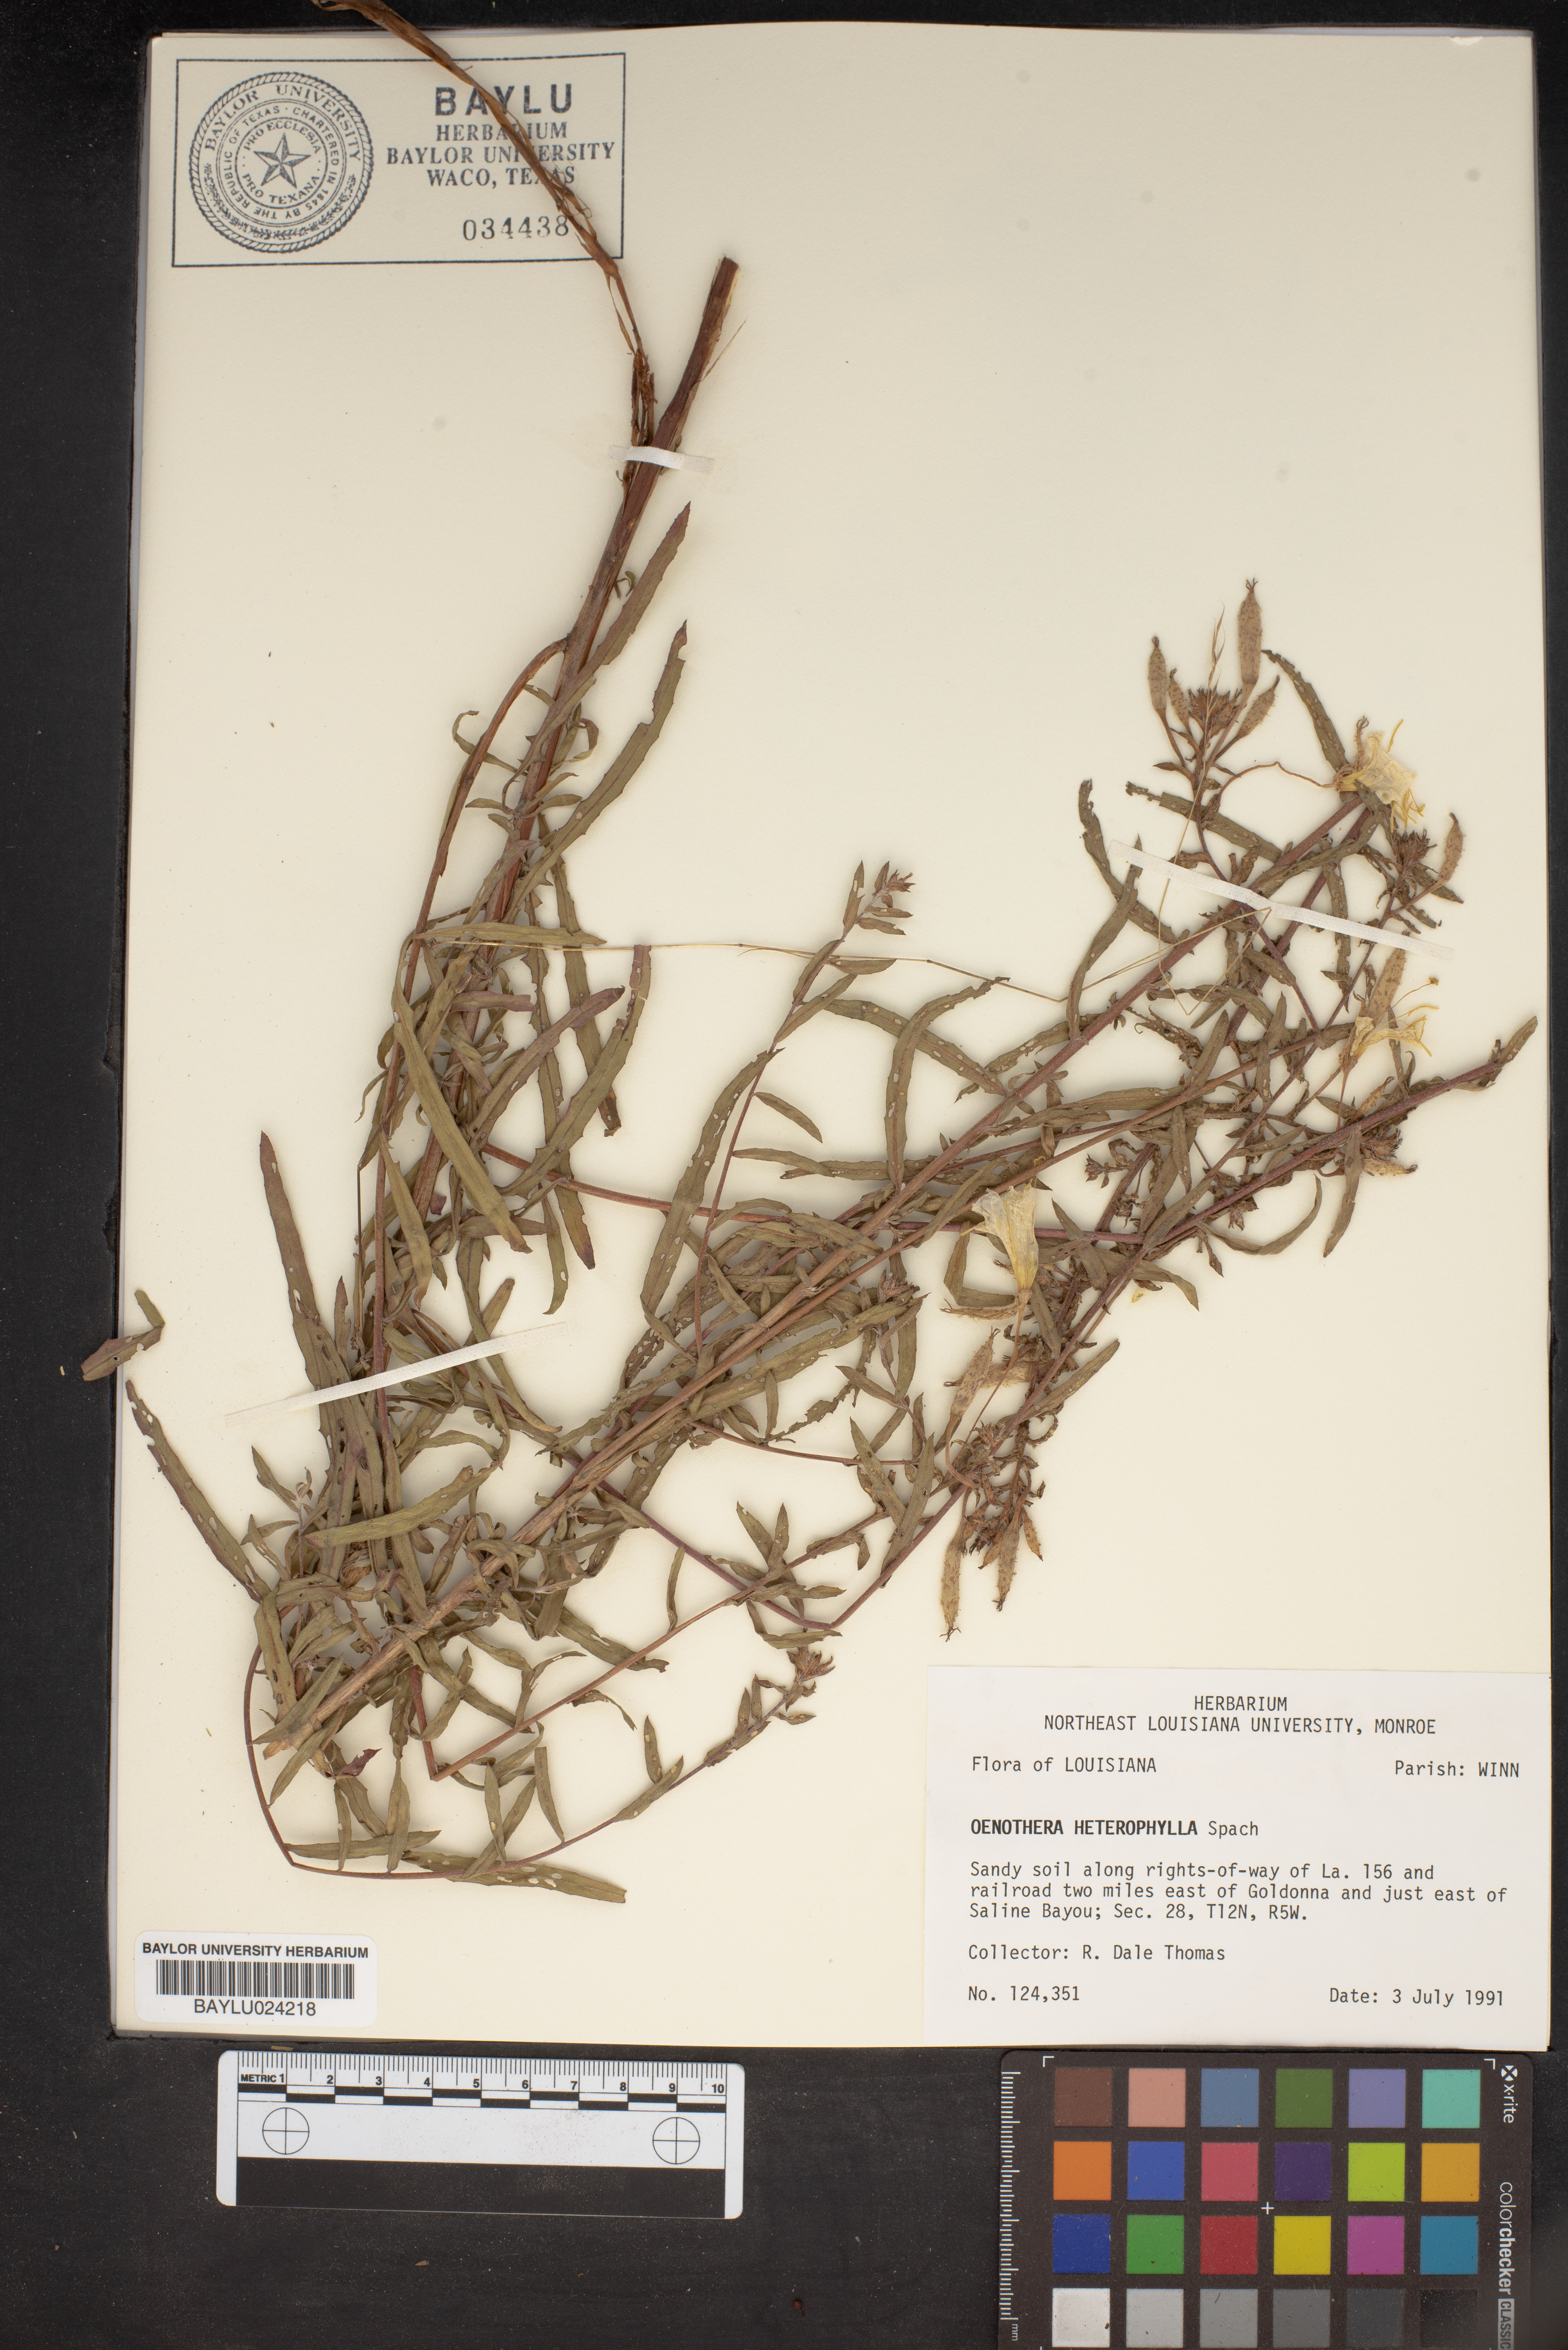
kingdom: Plantae
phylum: Tracheophyta
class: Magnoliopsida
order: Myrtales
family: Onagraceae
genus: Camissonia
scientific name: Camissonia dentata
